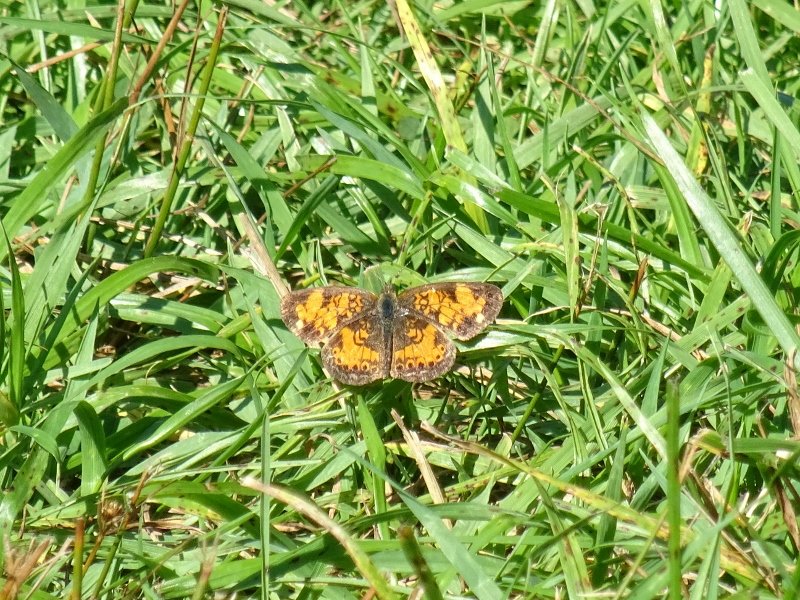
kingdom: Animalia
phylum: Arthropoda
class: Insecta
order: Lepidoptera
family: Nymphalidae
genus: Phyciodes
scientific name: Phyciodes
